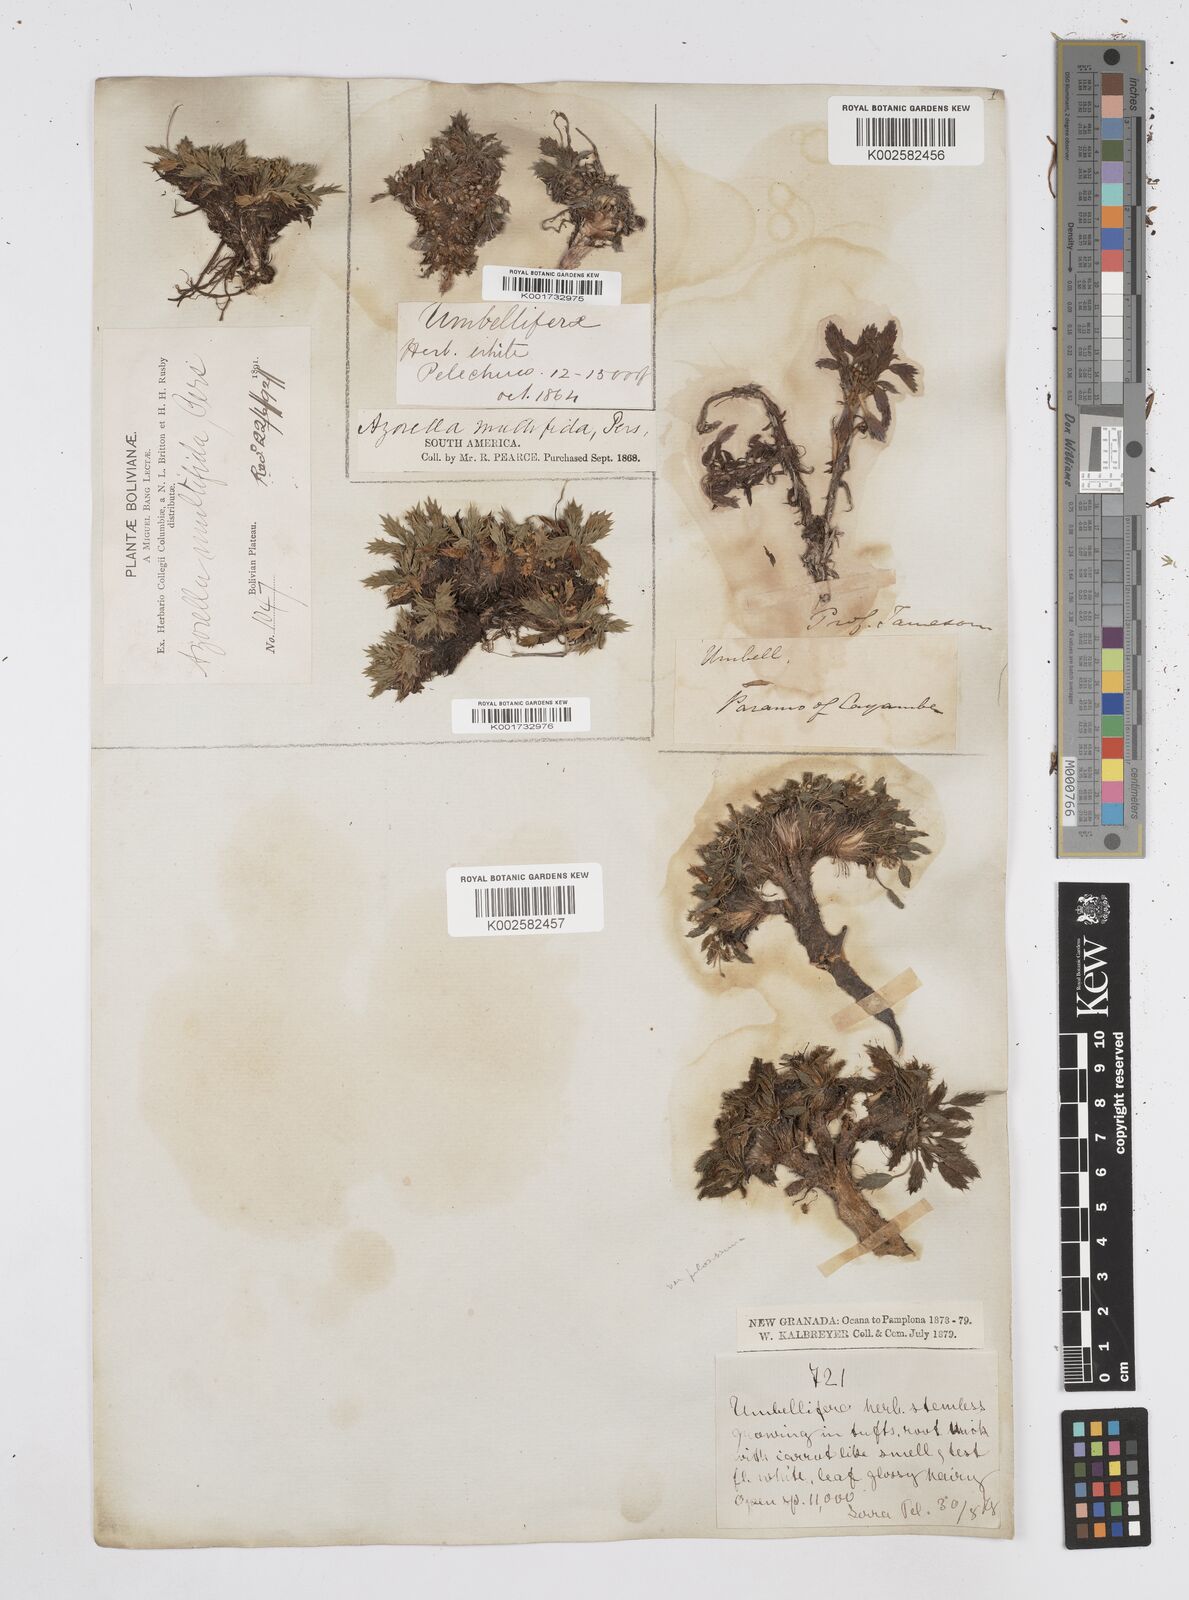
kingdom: Plantae
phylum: Tracheophyta
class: Magnoliopsida
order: Apiales
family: Apiaceae
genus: Azorella
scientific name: Azorella multifida
